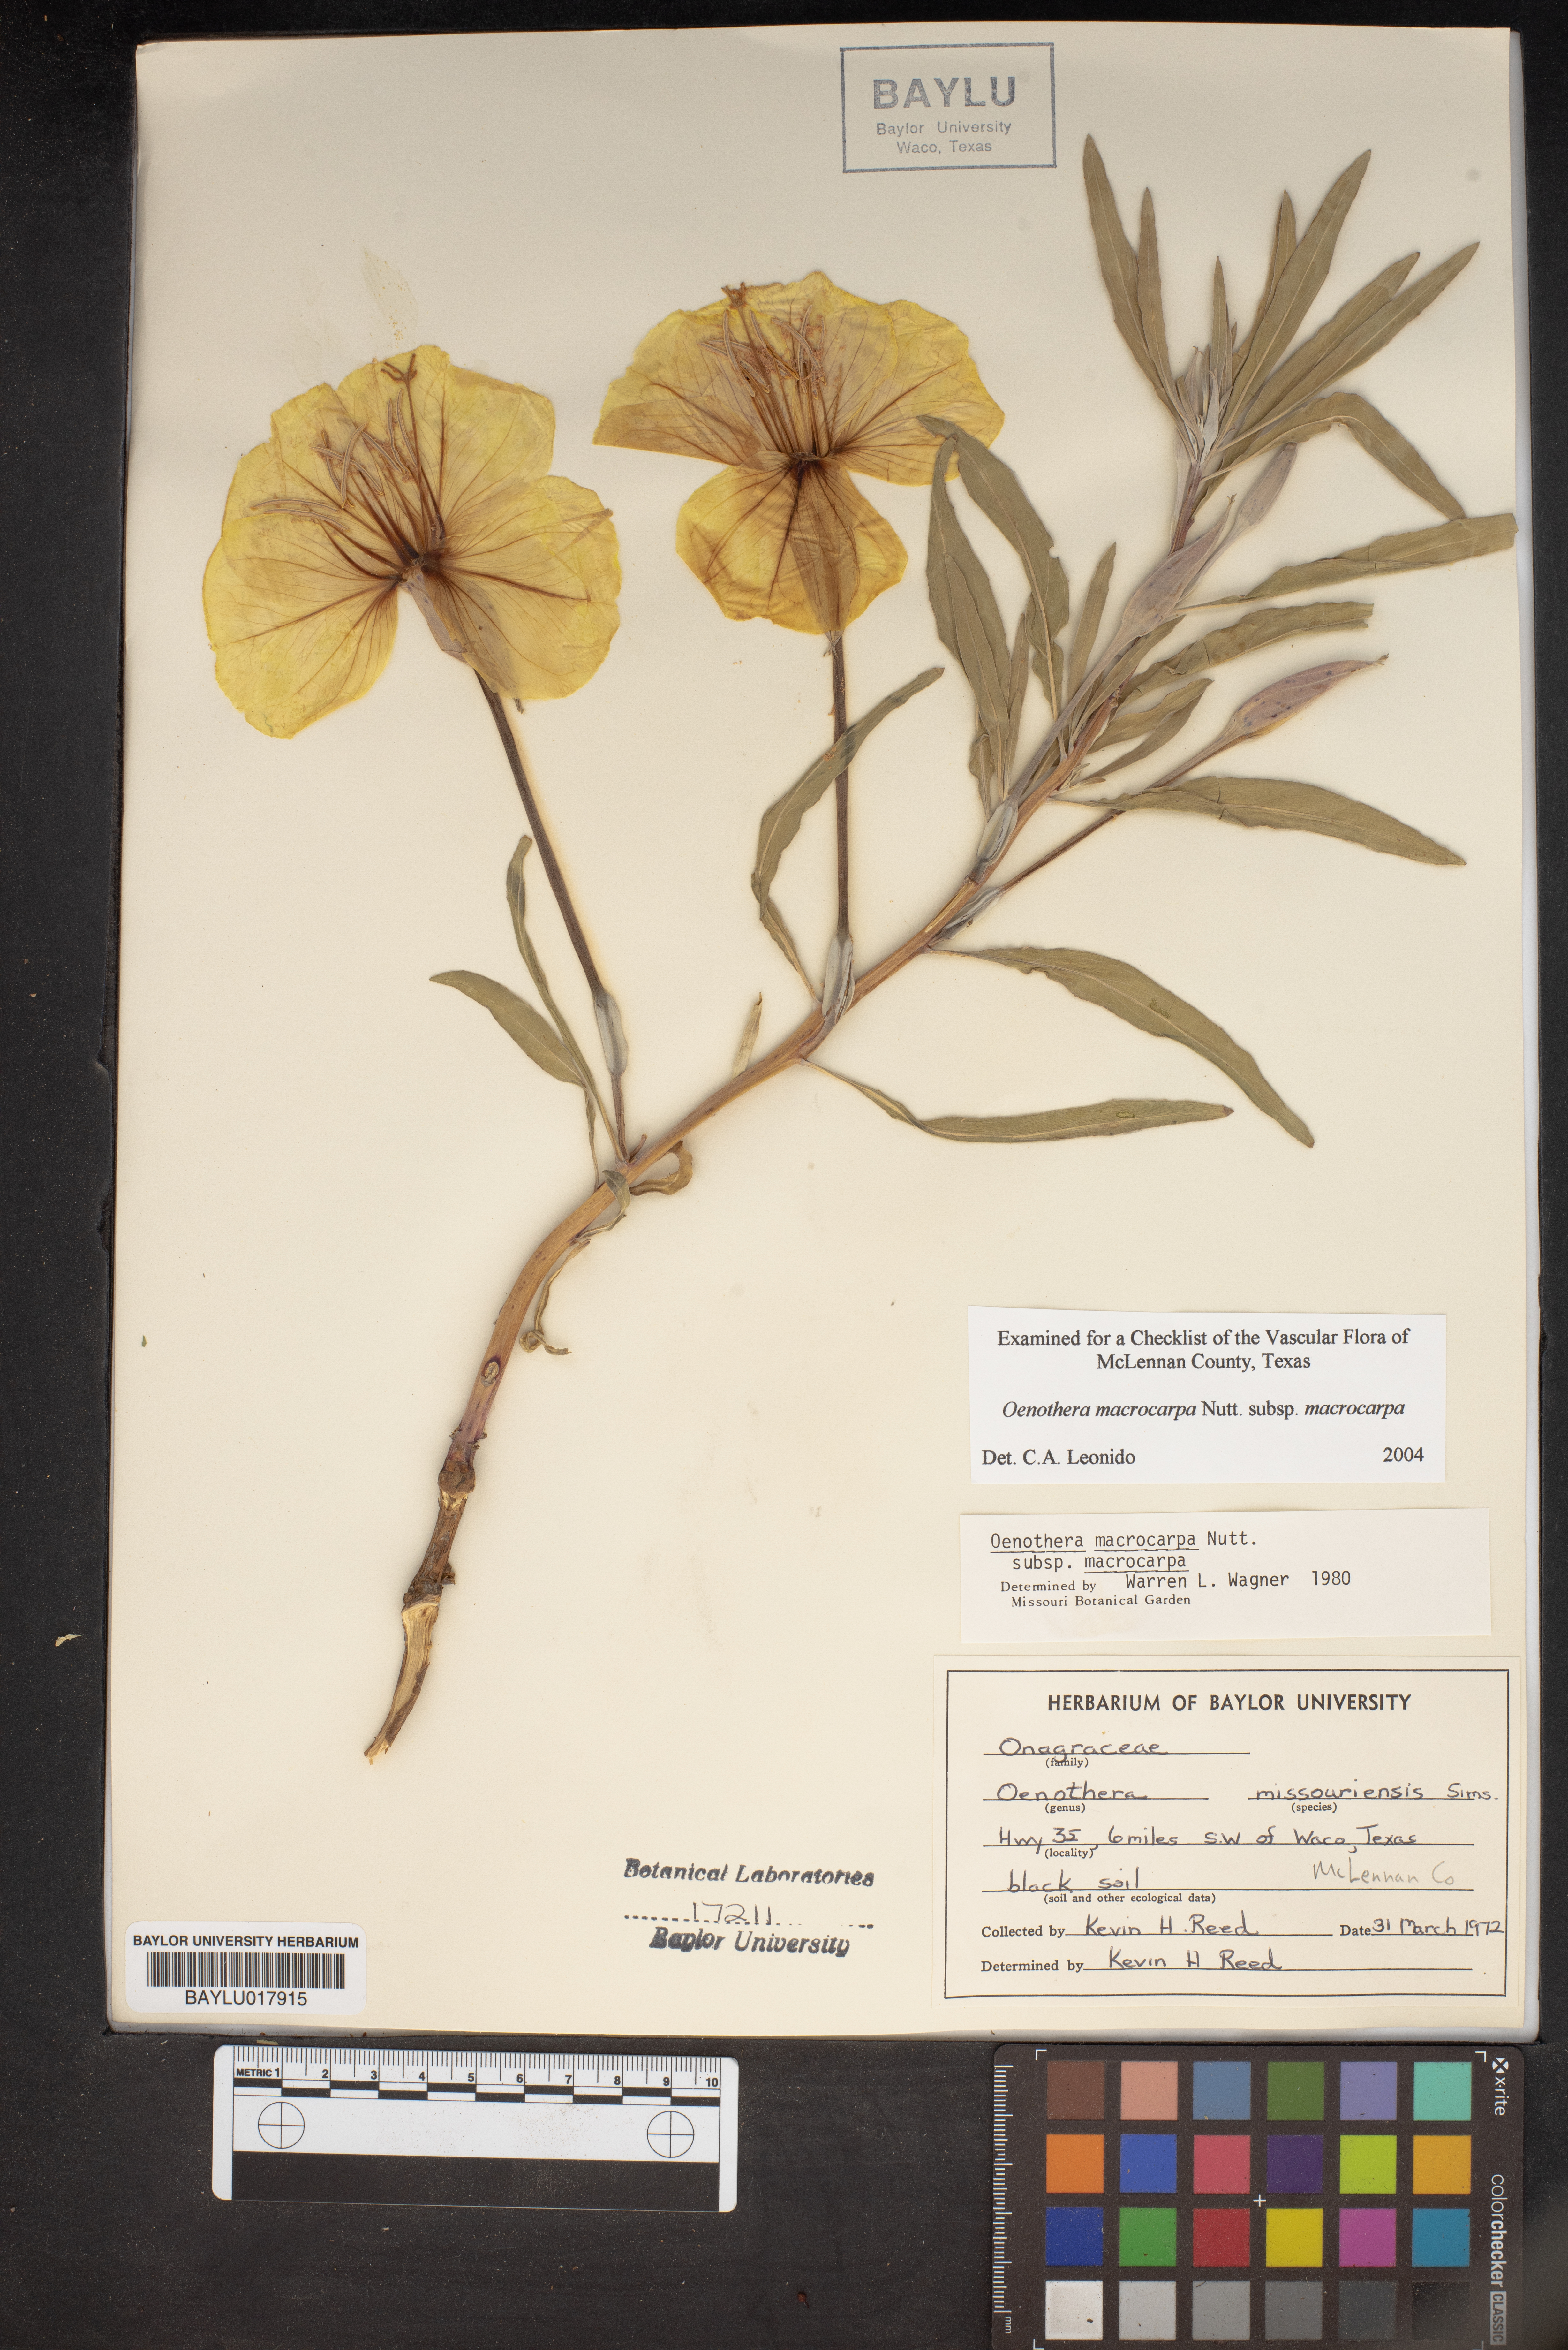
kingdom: Plantae
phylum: Tracheophyta
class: Magnoliopsida
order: Myrtales
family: Onagraceae
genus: Oenothera
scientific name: Oenothera macrocarpa
